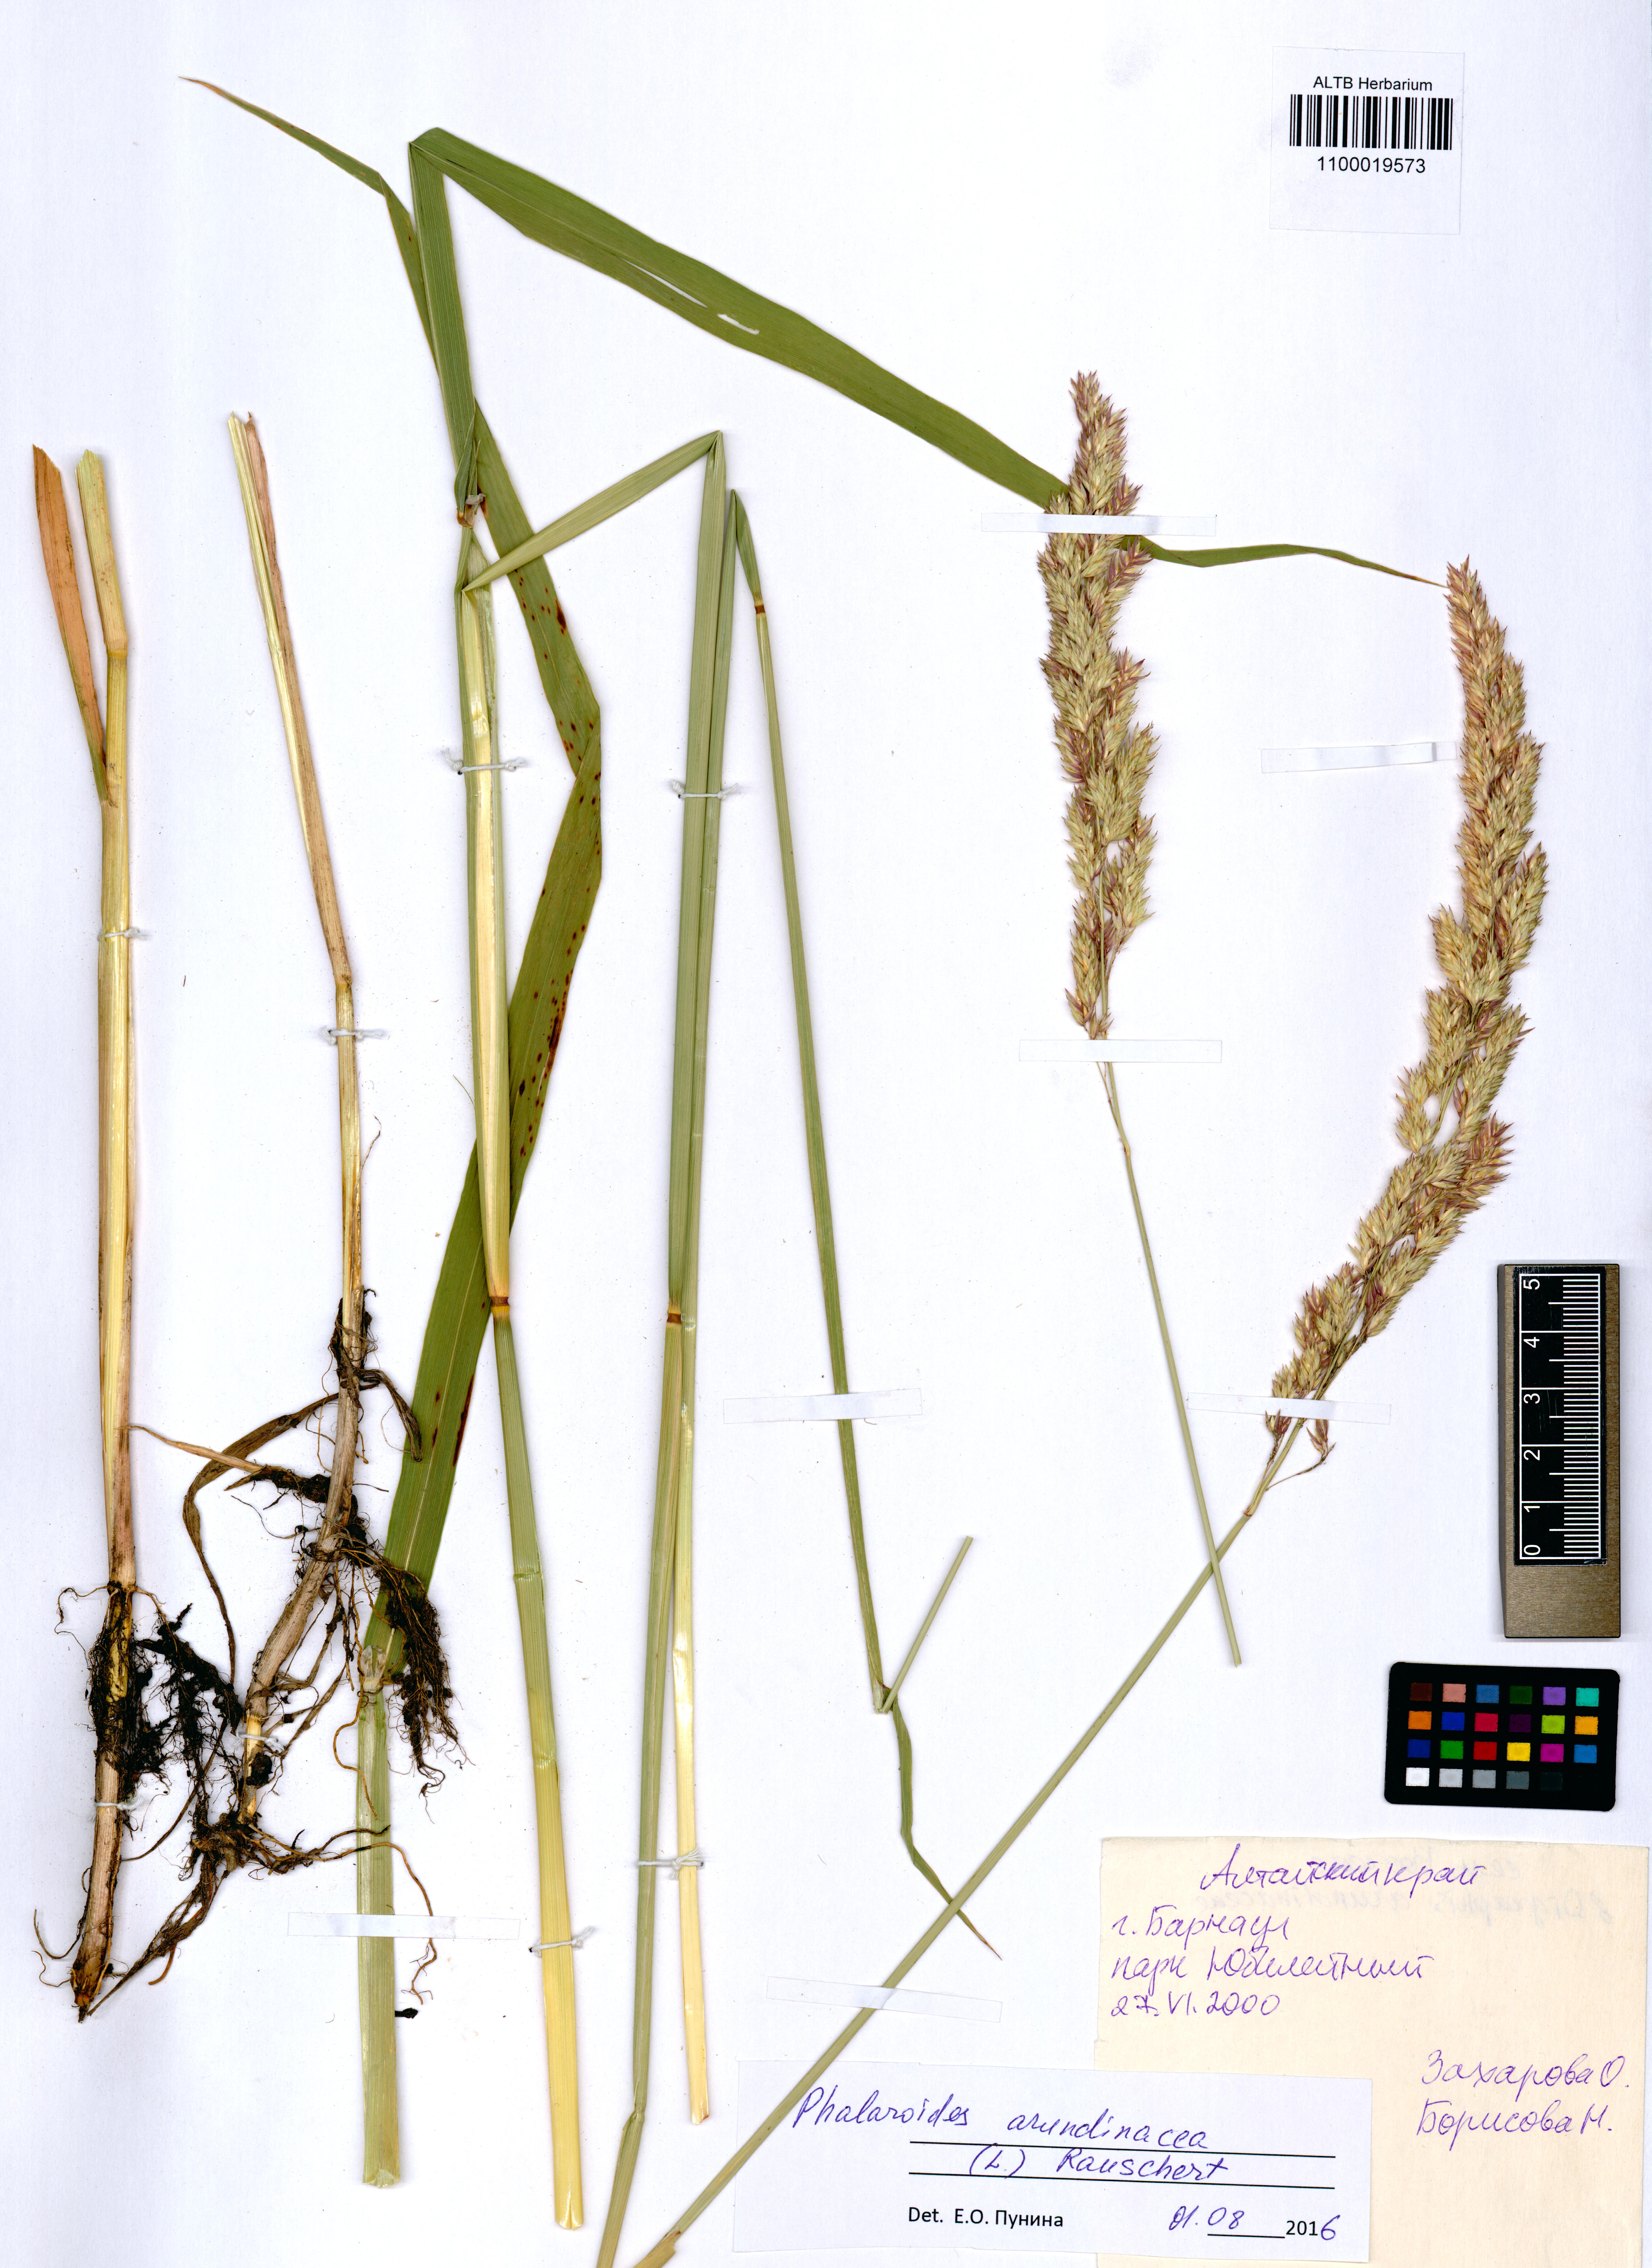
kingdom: Plantae
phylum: Tracheophyta
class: Liliopsida
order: Poales
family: Poaceae
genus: Phalaris
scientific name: Phalaris arundinacea
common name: Reed canary-grass
